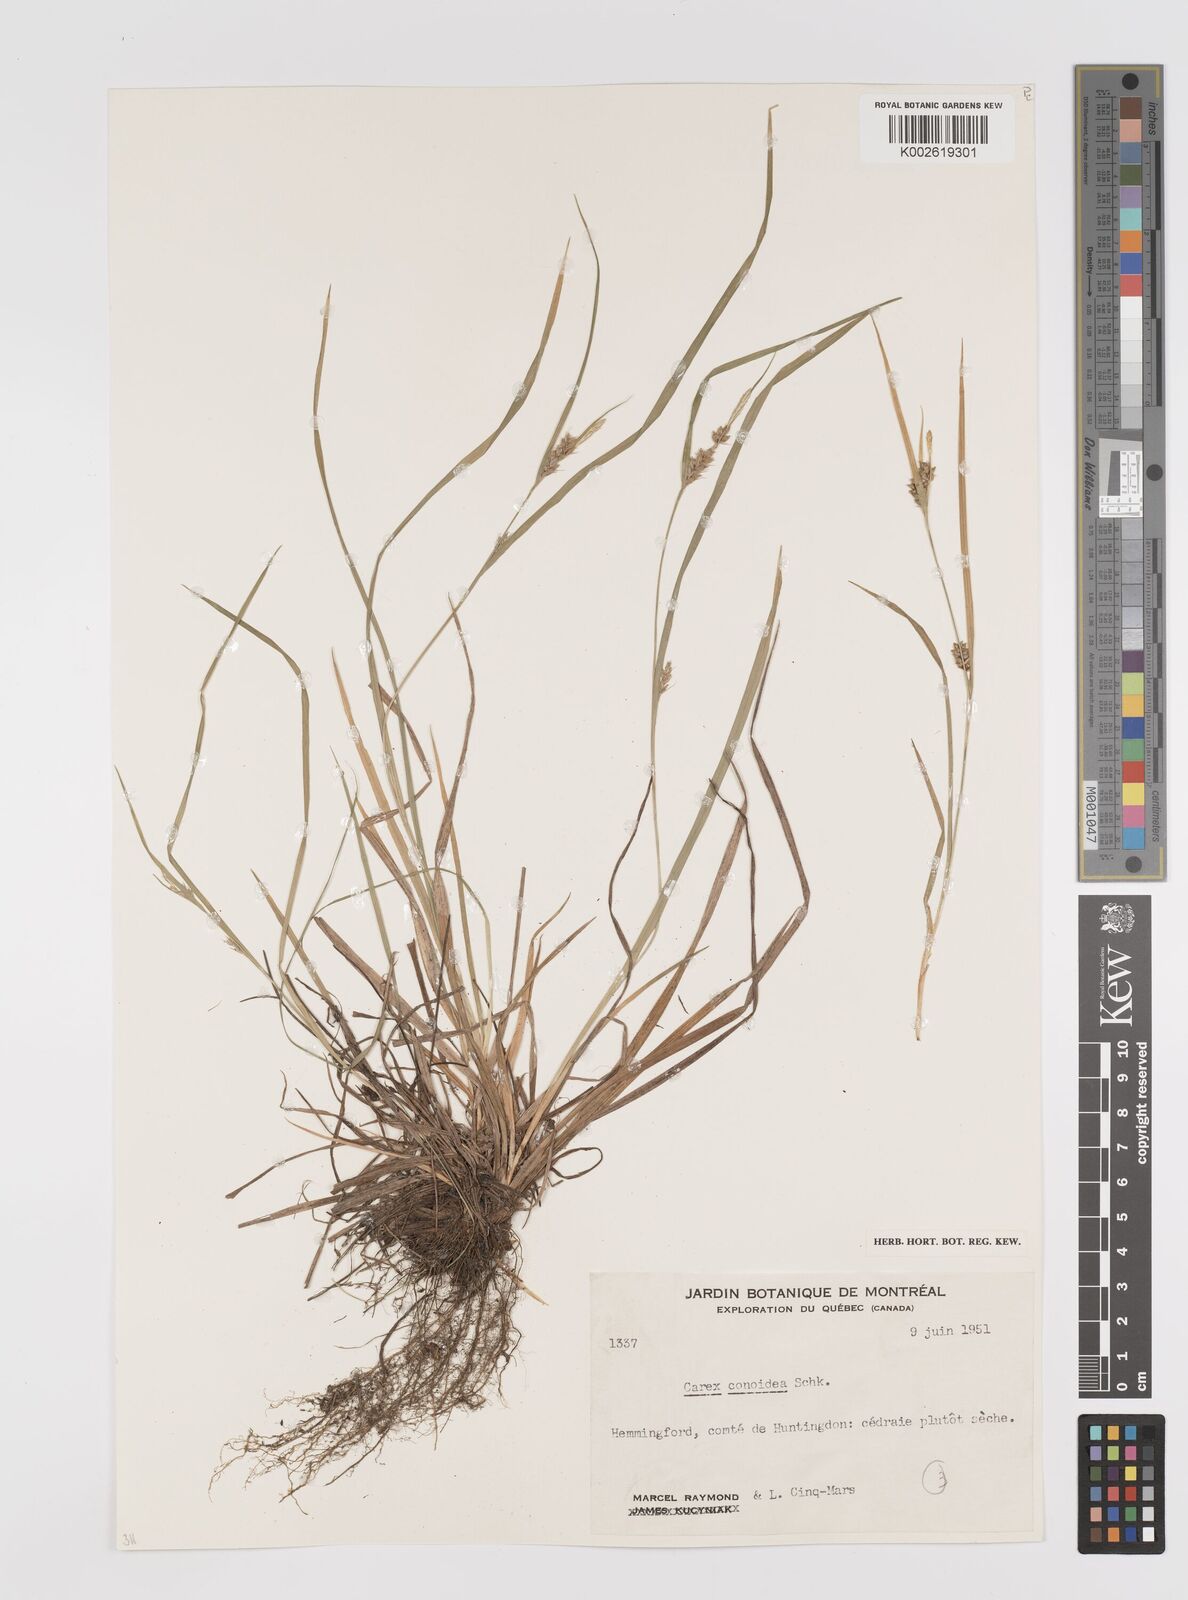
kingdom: Plantae
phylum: Tracheophyta
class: Liliopsida
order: Poales
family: Cyperaceae
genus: Carex
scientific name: Carex conoidea
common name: Cone shaped sedge
